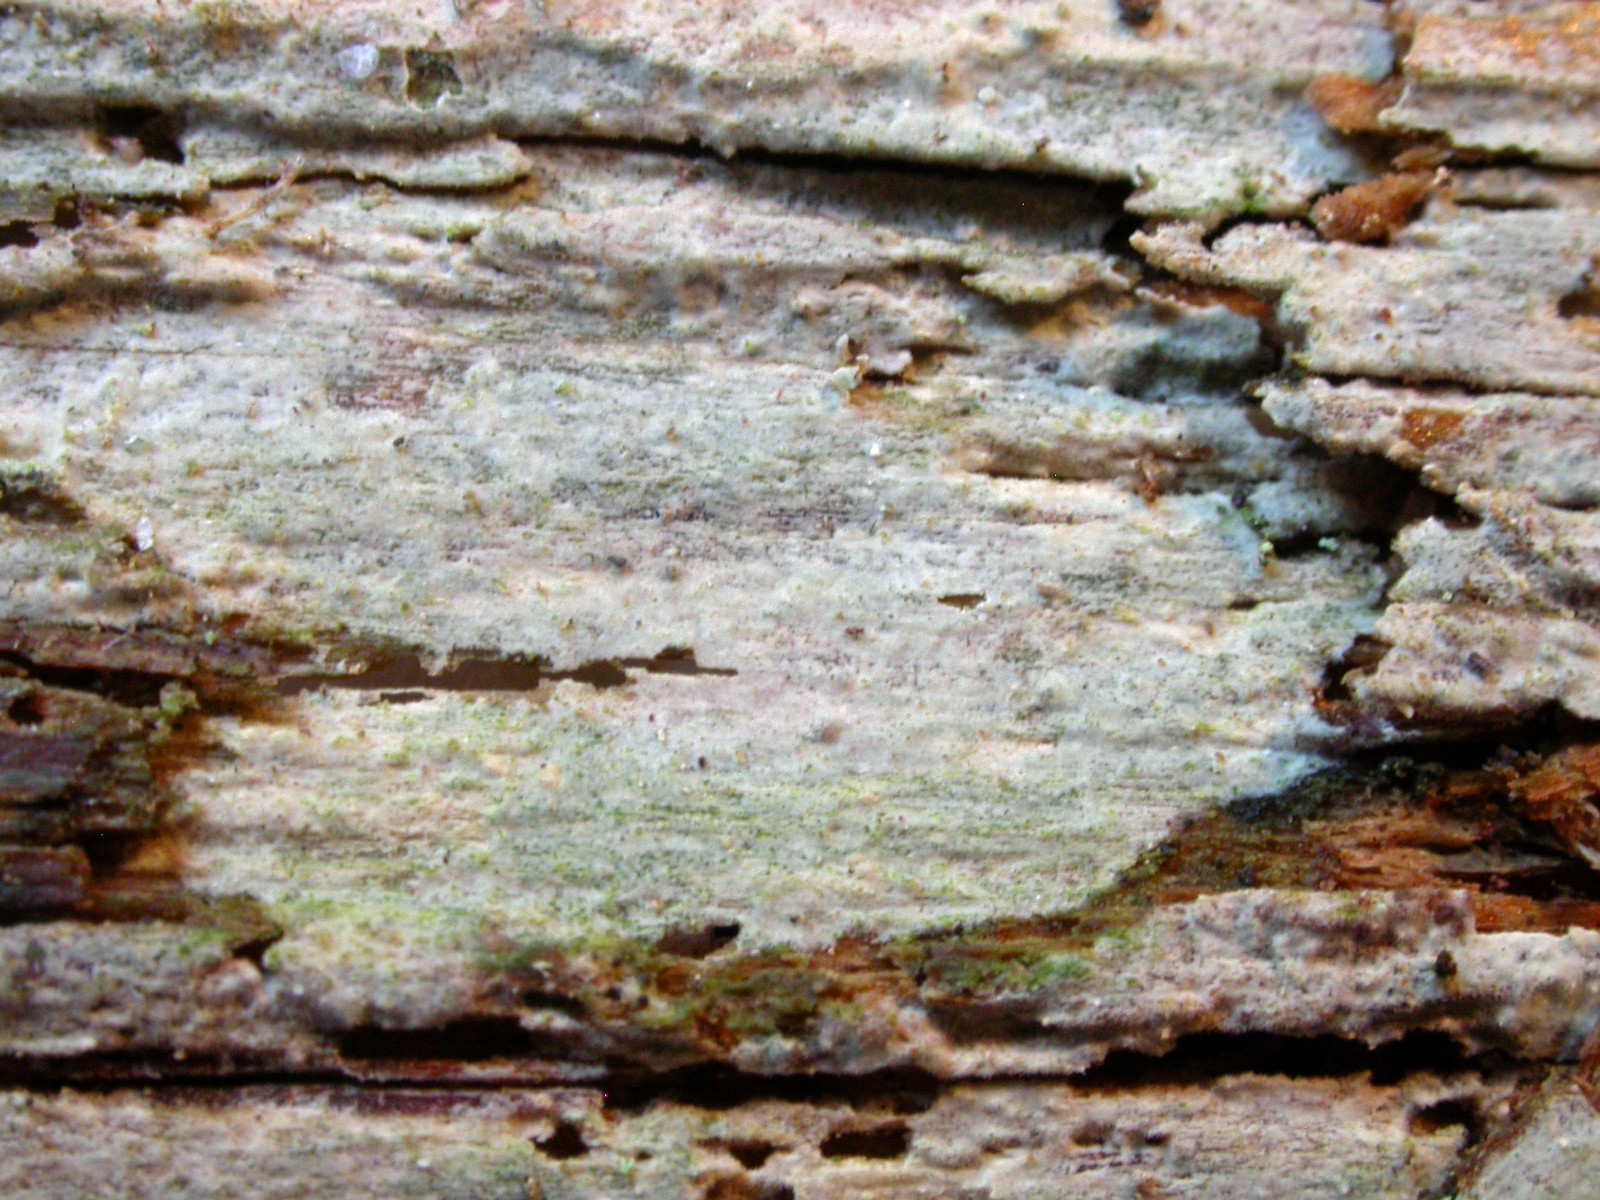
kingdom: Fungi
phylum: Basidiomycota
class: Agaricomycetes
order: Hymenochaetales
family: Hymenochaetaceae
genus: Tubulicrinis
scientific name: Tubulicrinis subulatus
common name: spids nålehinde
